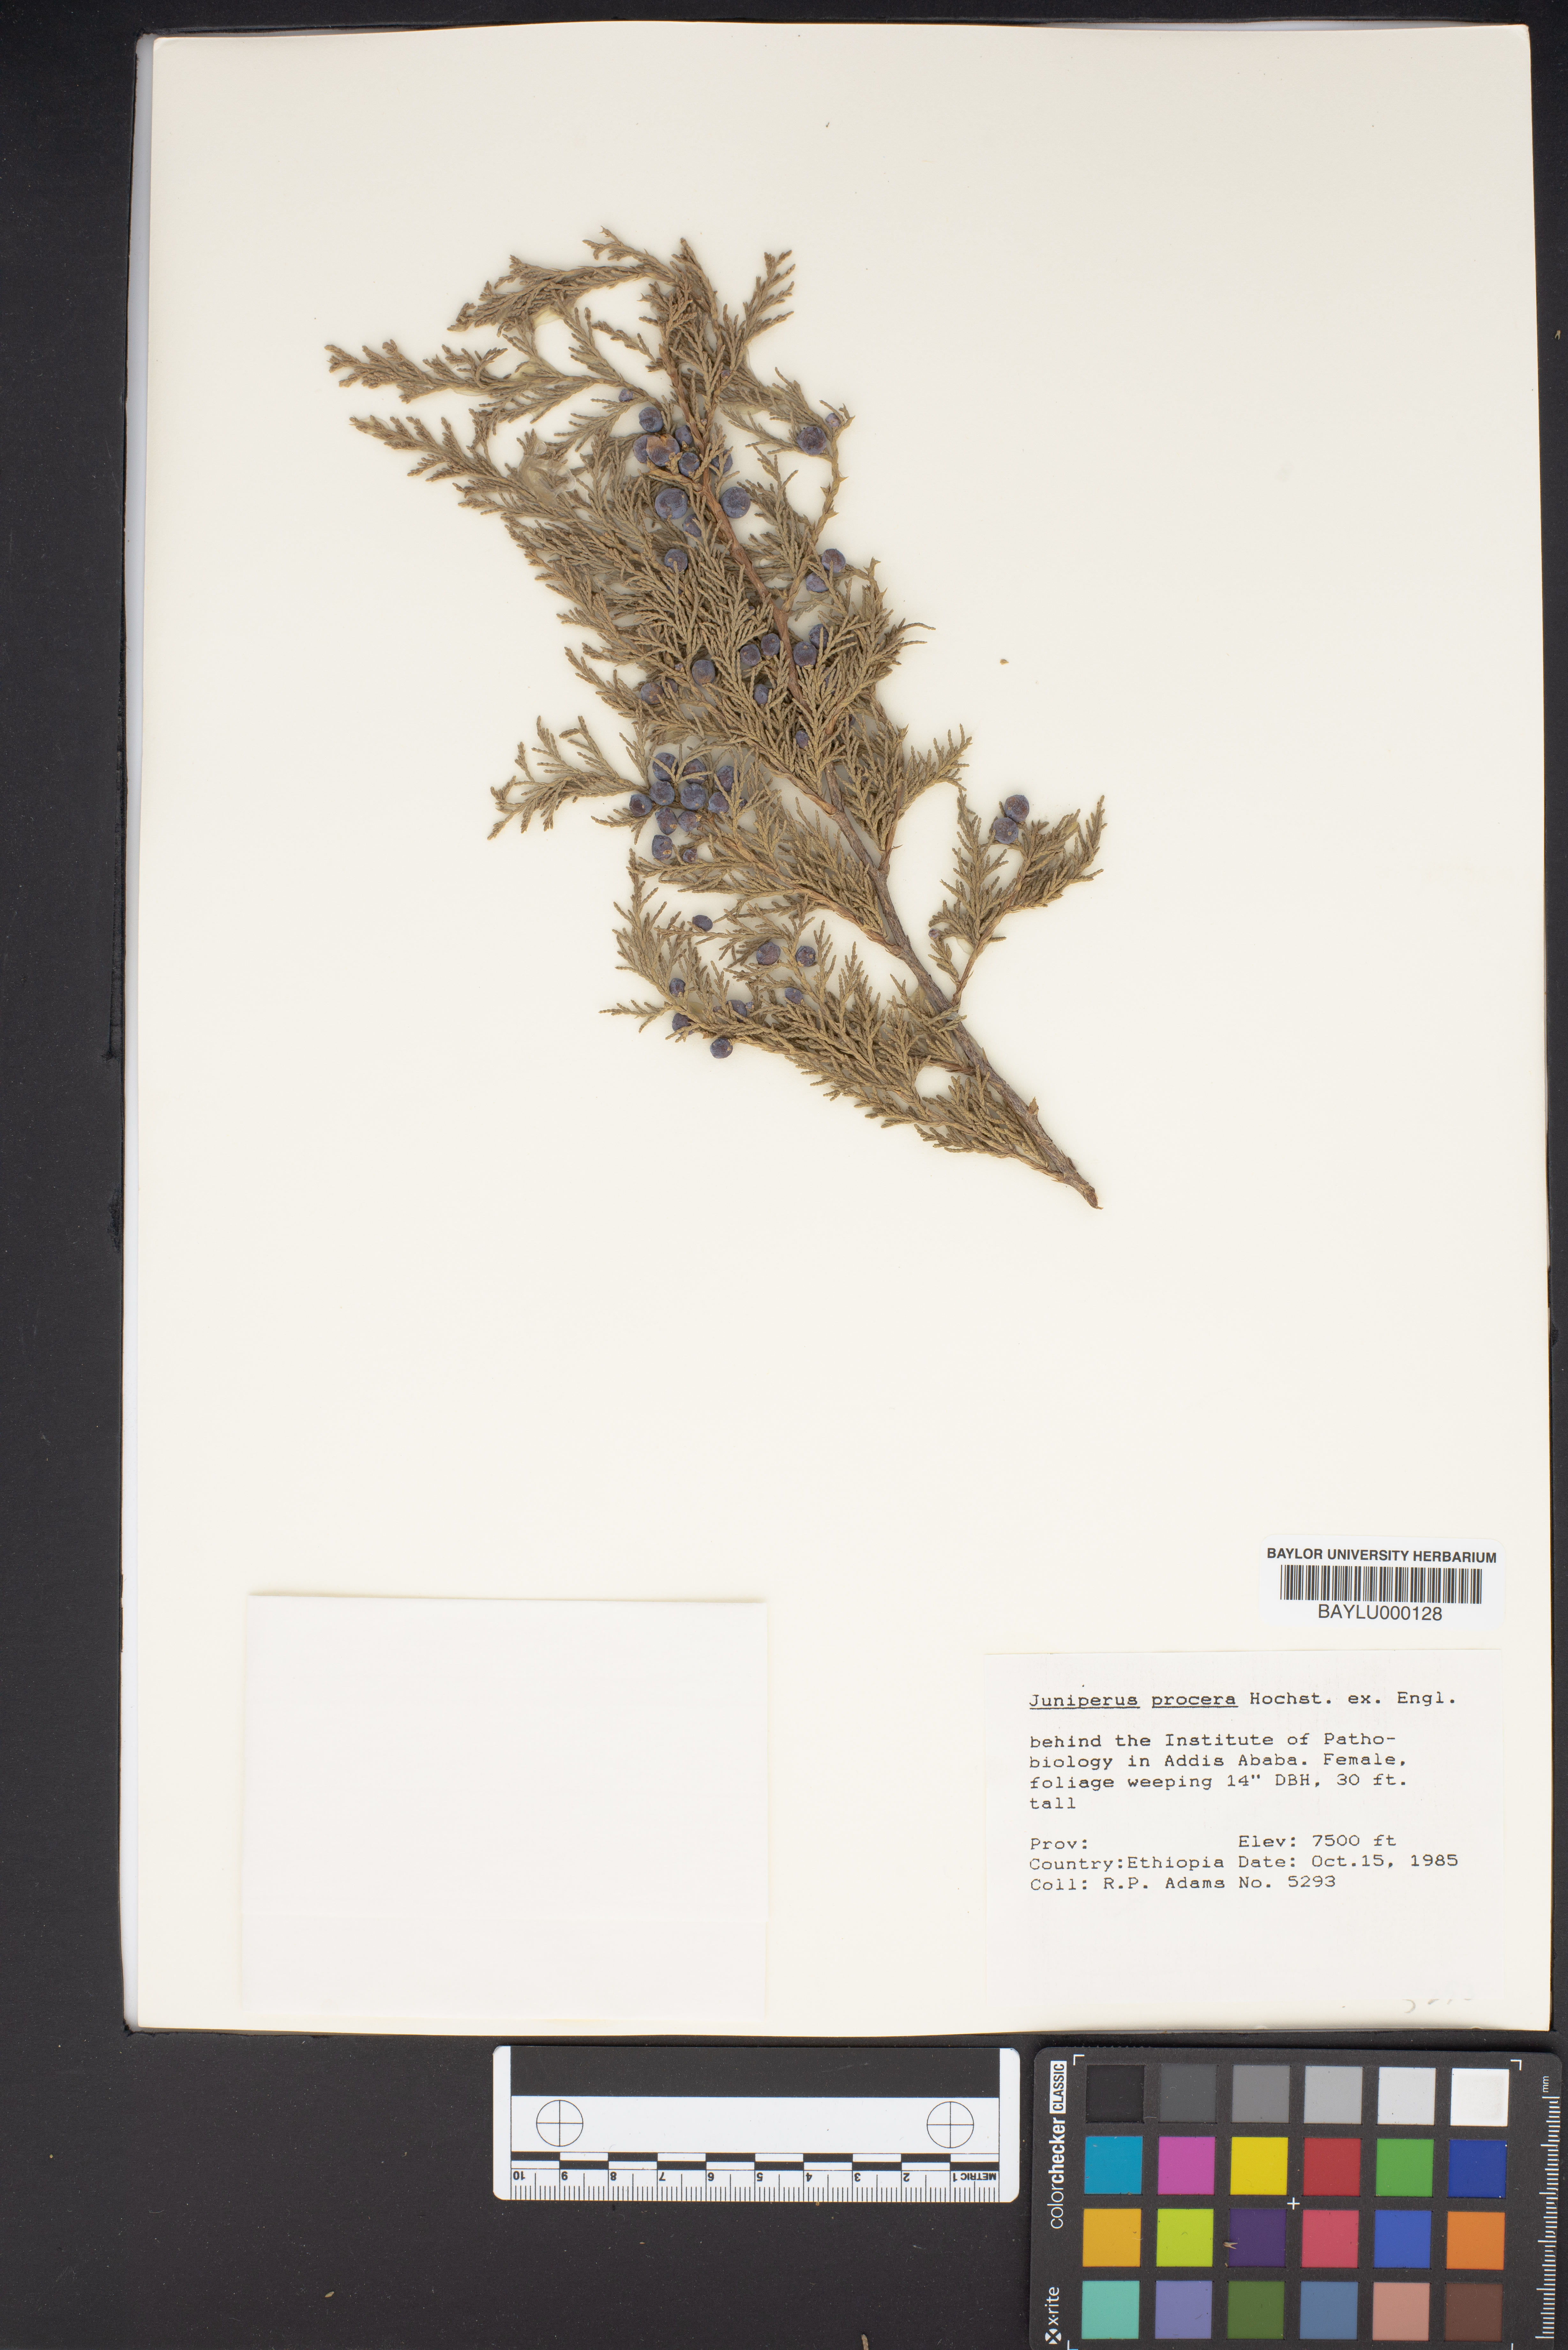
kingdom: Plantae
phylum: Tracheophyta
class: Pinopsida
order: Pinales
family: Cupressaceae
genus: Juniperus
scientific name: Juniperus procera
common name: African juniper
